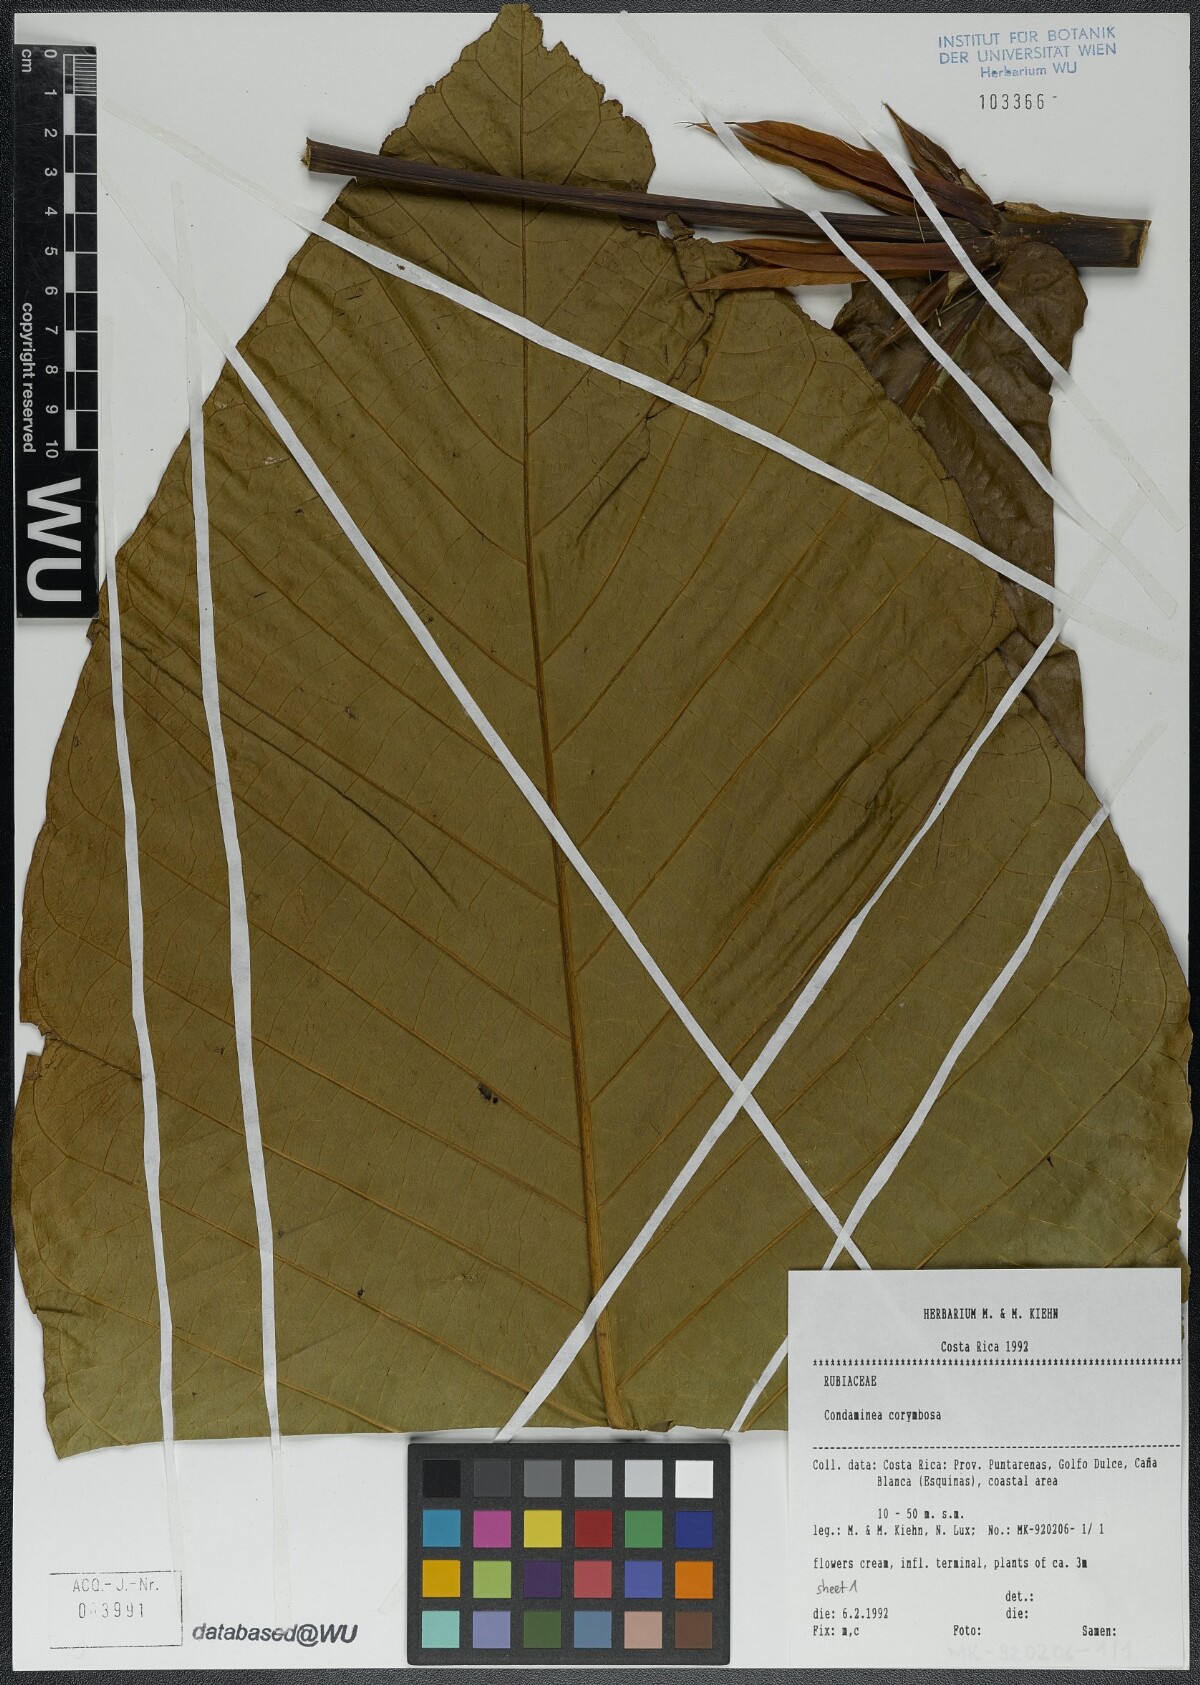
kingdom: Plantae
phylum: Tracheophyta
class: Magnoliopsida
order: Gentianales
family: Rubiaceae
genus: Condaminea
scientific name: Condaminea corymbosa
